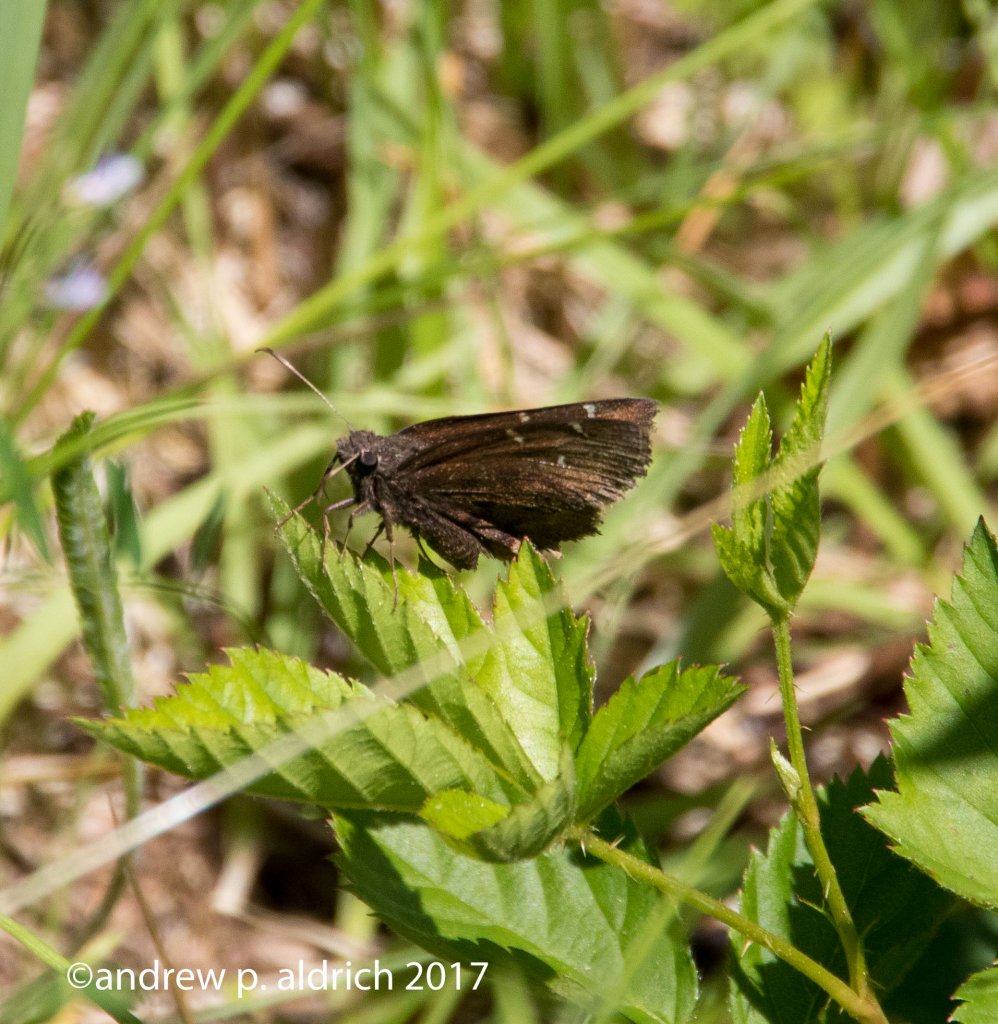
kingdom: Animalia
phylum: Arthropoda
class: Insecta
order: Lepidoptera
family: Hesperiidae
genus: Autochton
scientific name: Autochton
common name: Northern Cloudywing
